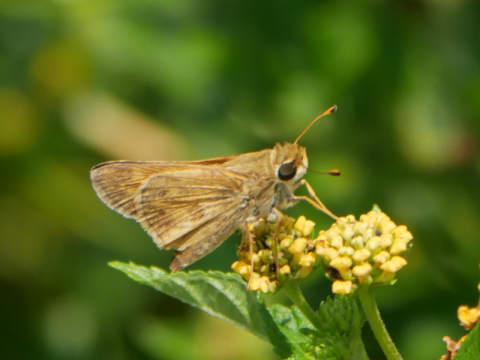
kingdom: Animalia
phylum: Arthropoda
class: Insecta
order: Lepidoptera
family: Hesperiidae
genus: Atalopedes
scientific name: Atalopedes campestris
